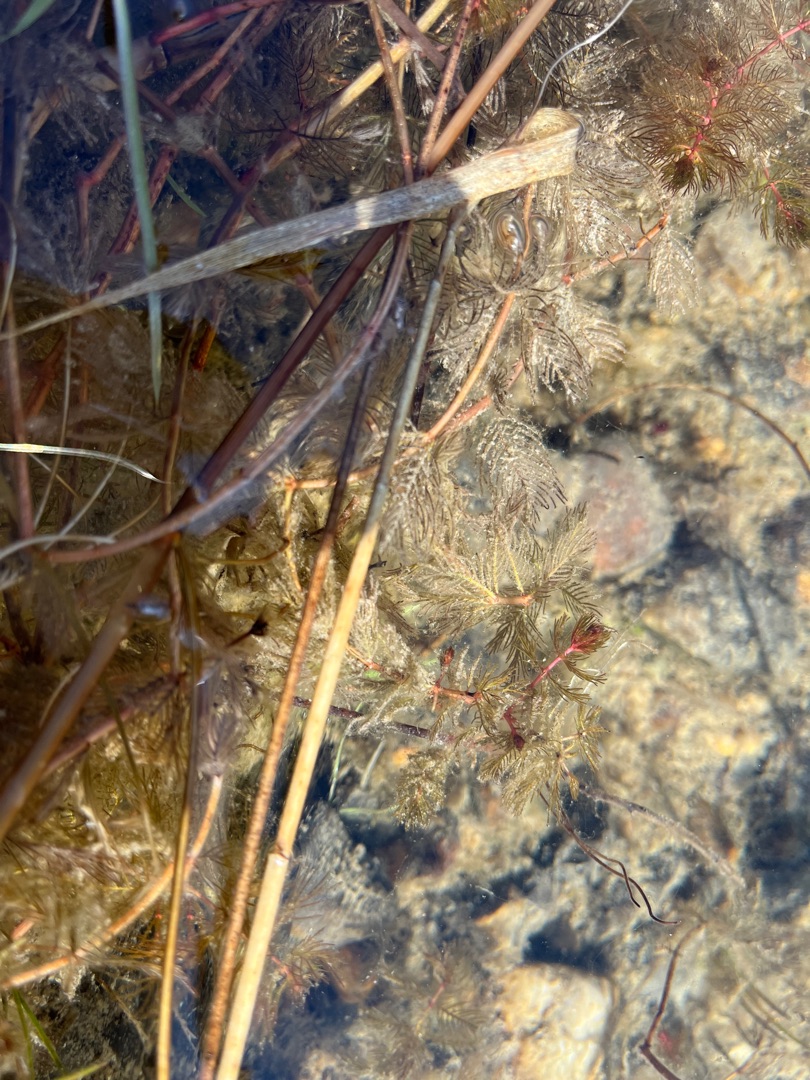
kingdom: Plantae
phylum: Tracheophyta
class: Magnoliopsida
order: Saxifragales
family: Haloragaceae
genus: Myriophyllum
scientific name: Myriophyllum spicatum
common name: Aks-tusindblad
